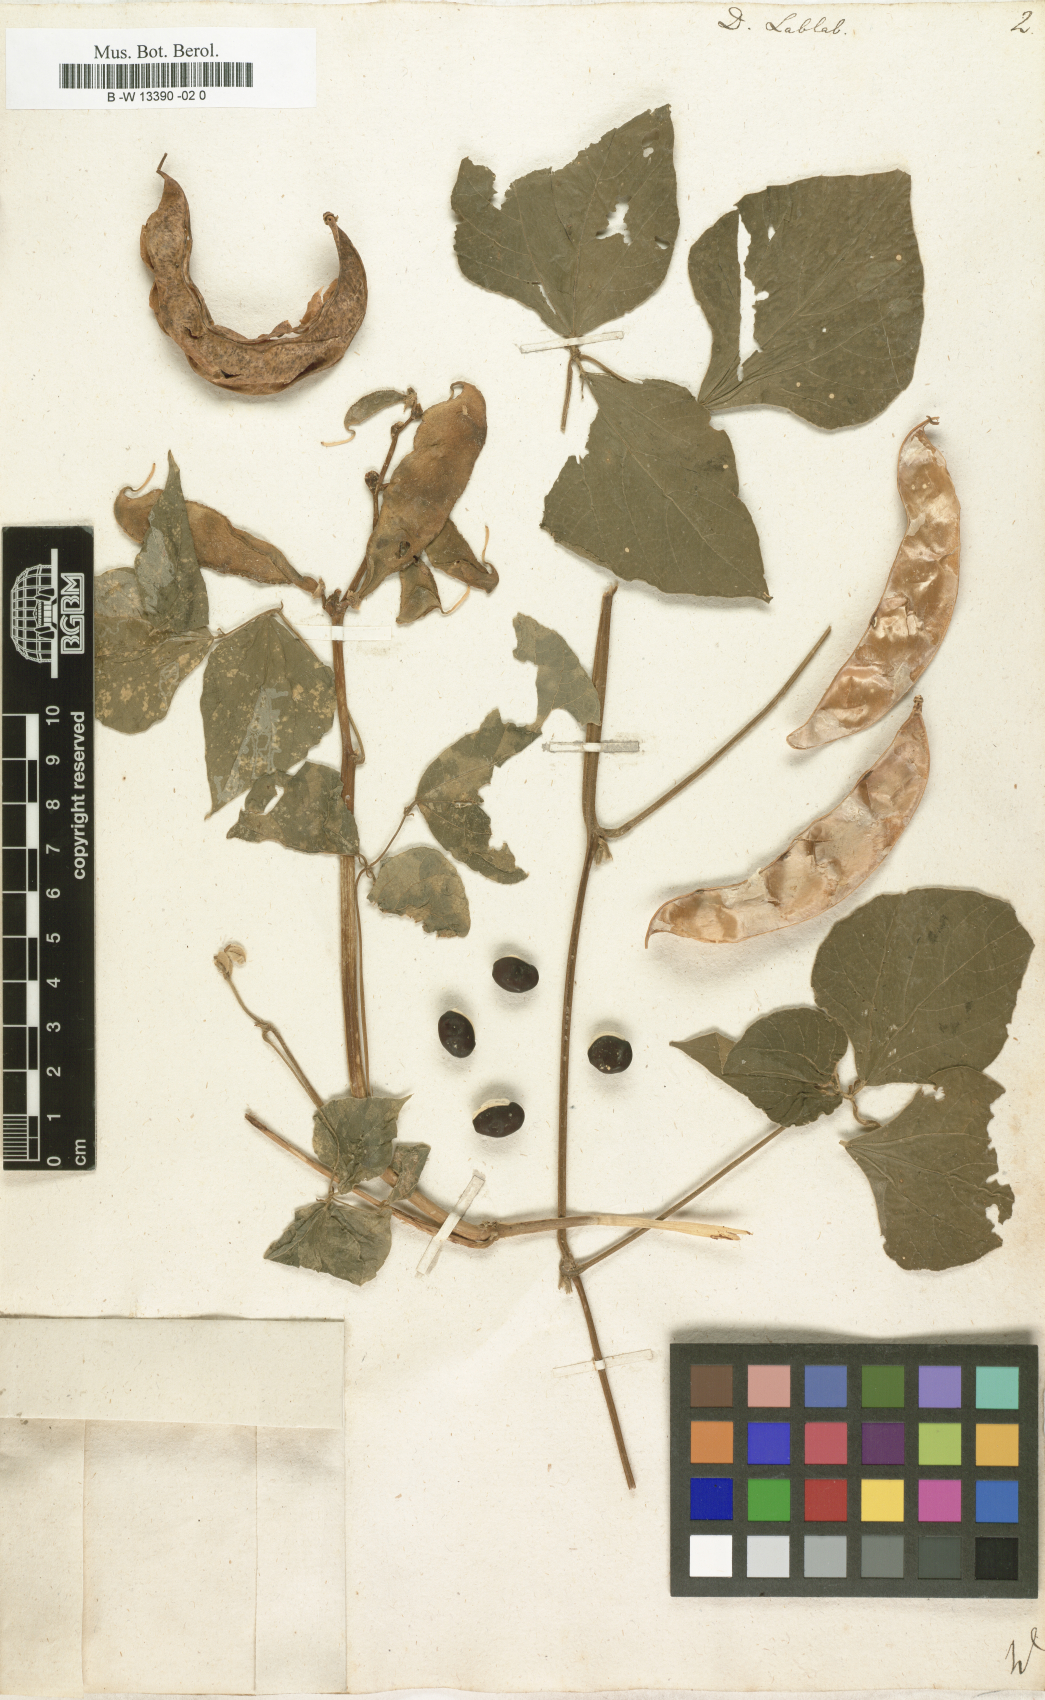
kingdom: Plantae
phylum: Tracheophyta
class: Magnoliopsida
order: Fabales
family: Fabaceae
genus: Lablab
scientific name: Lablab purpureus
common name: Lablab-bean
